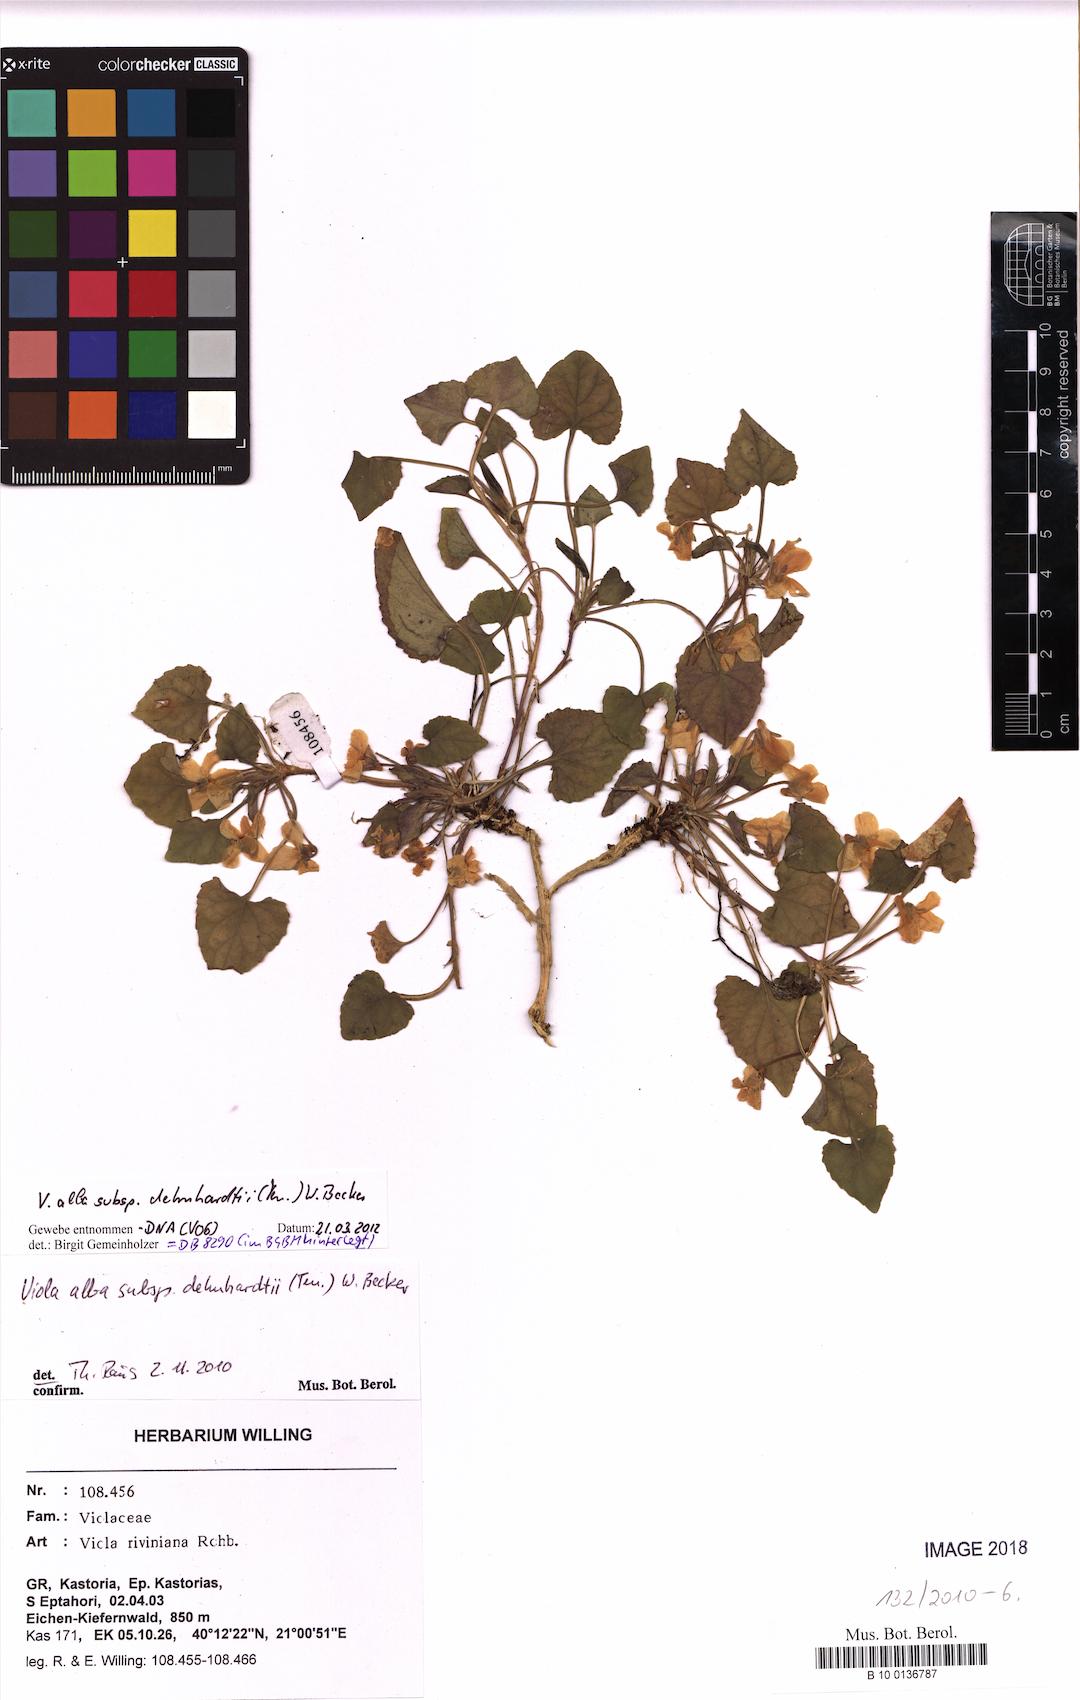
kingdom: Plantae
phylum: Tracheophyta
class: Magnoliopsida
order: Malpighiales
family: Violaceae
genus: Viola
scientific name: Viola alba
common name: White violet
